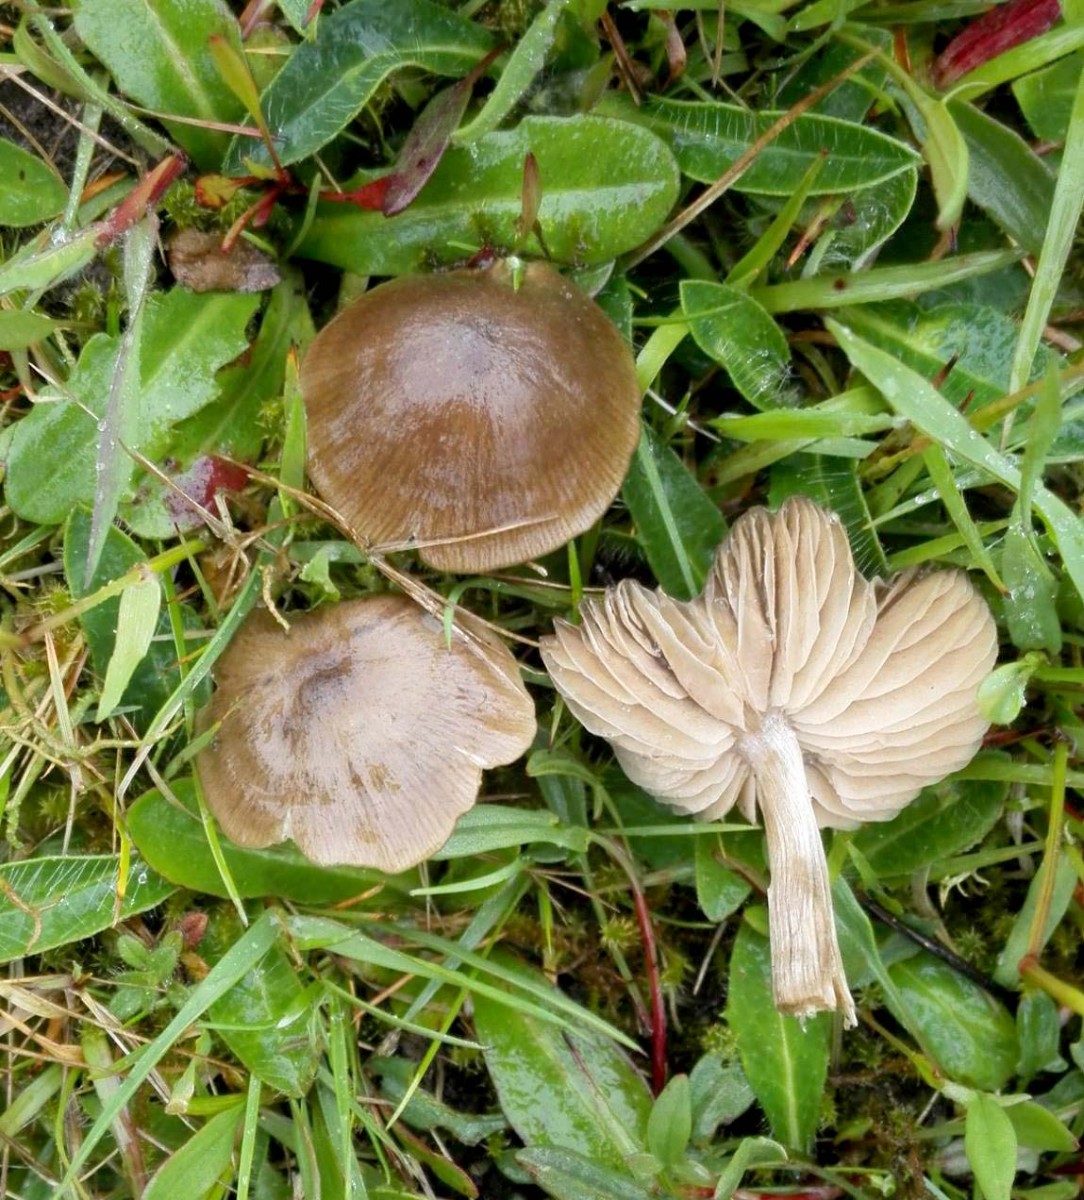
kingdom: Fungi
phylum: Basidiomycota
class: Agaricomycetes
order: Agaricales
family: Entolomataceae
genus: Entoloma
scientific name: Entoloma
